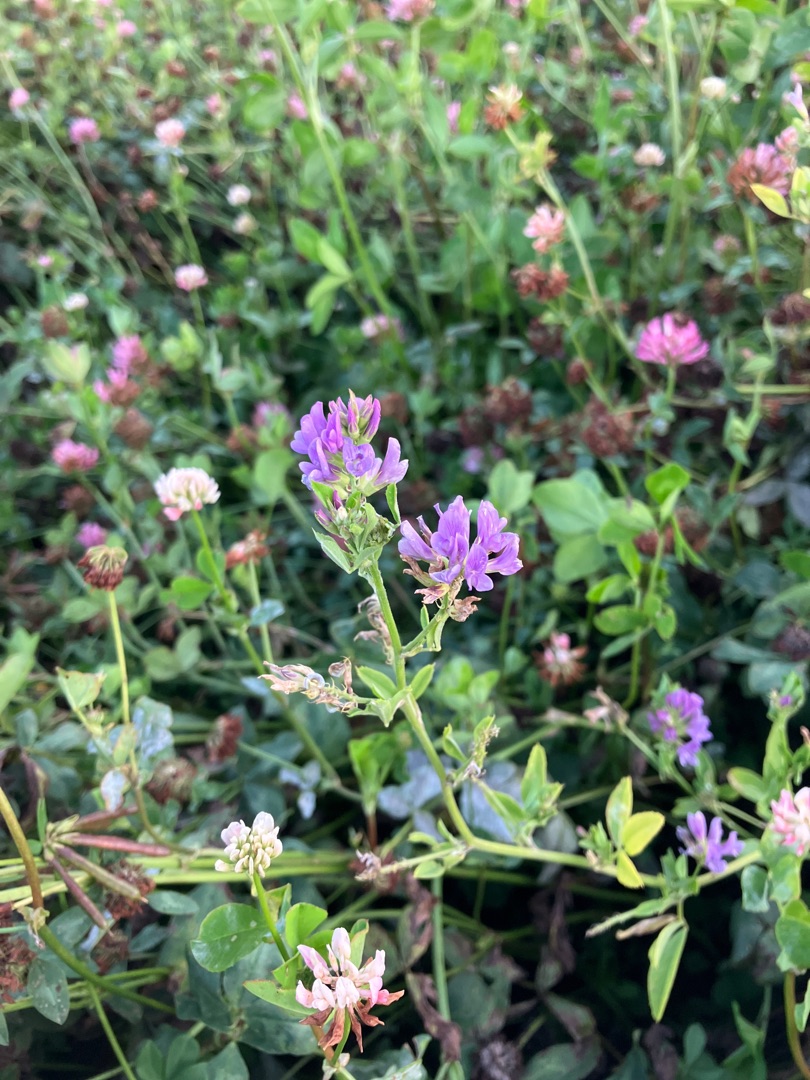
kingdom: Plantae
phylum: Tracheophyta
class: Magnoliopsida
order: Fabales
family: Fabaceae
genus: Medicago
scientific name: Medicago sativa
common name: Lucerne
